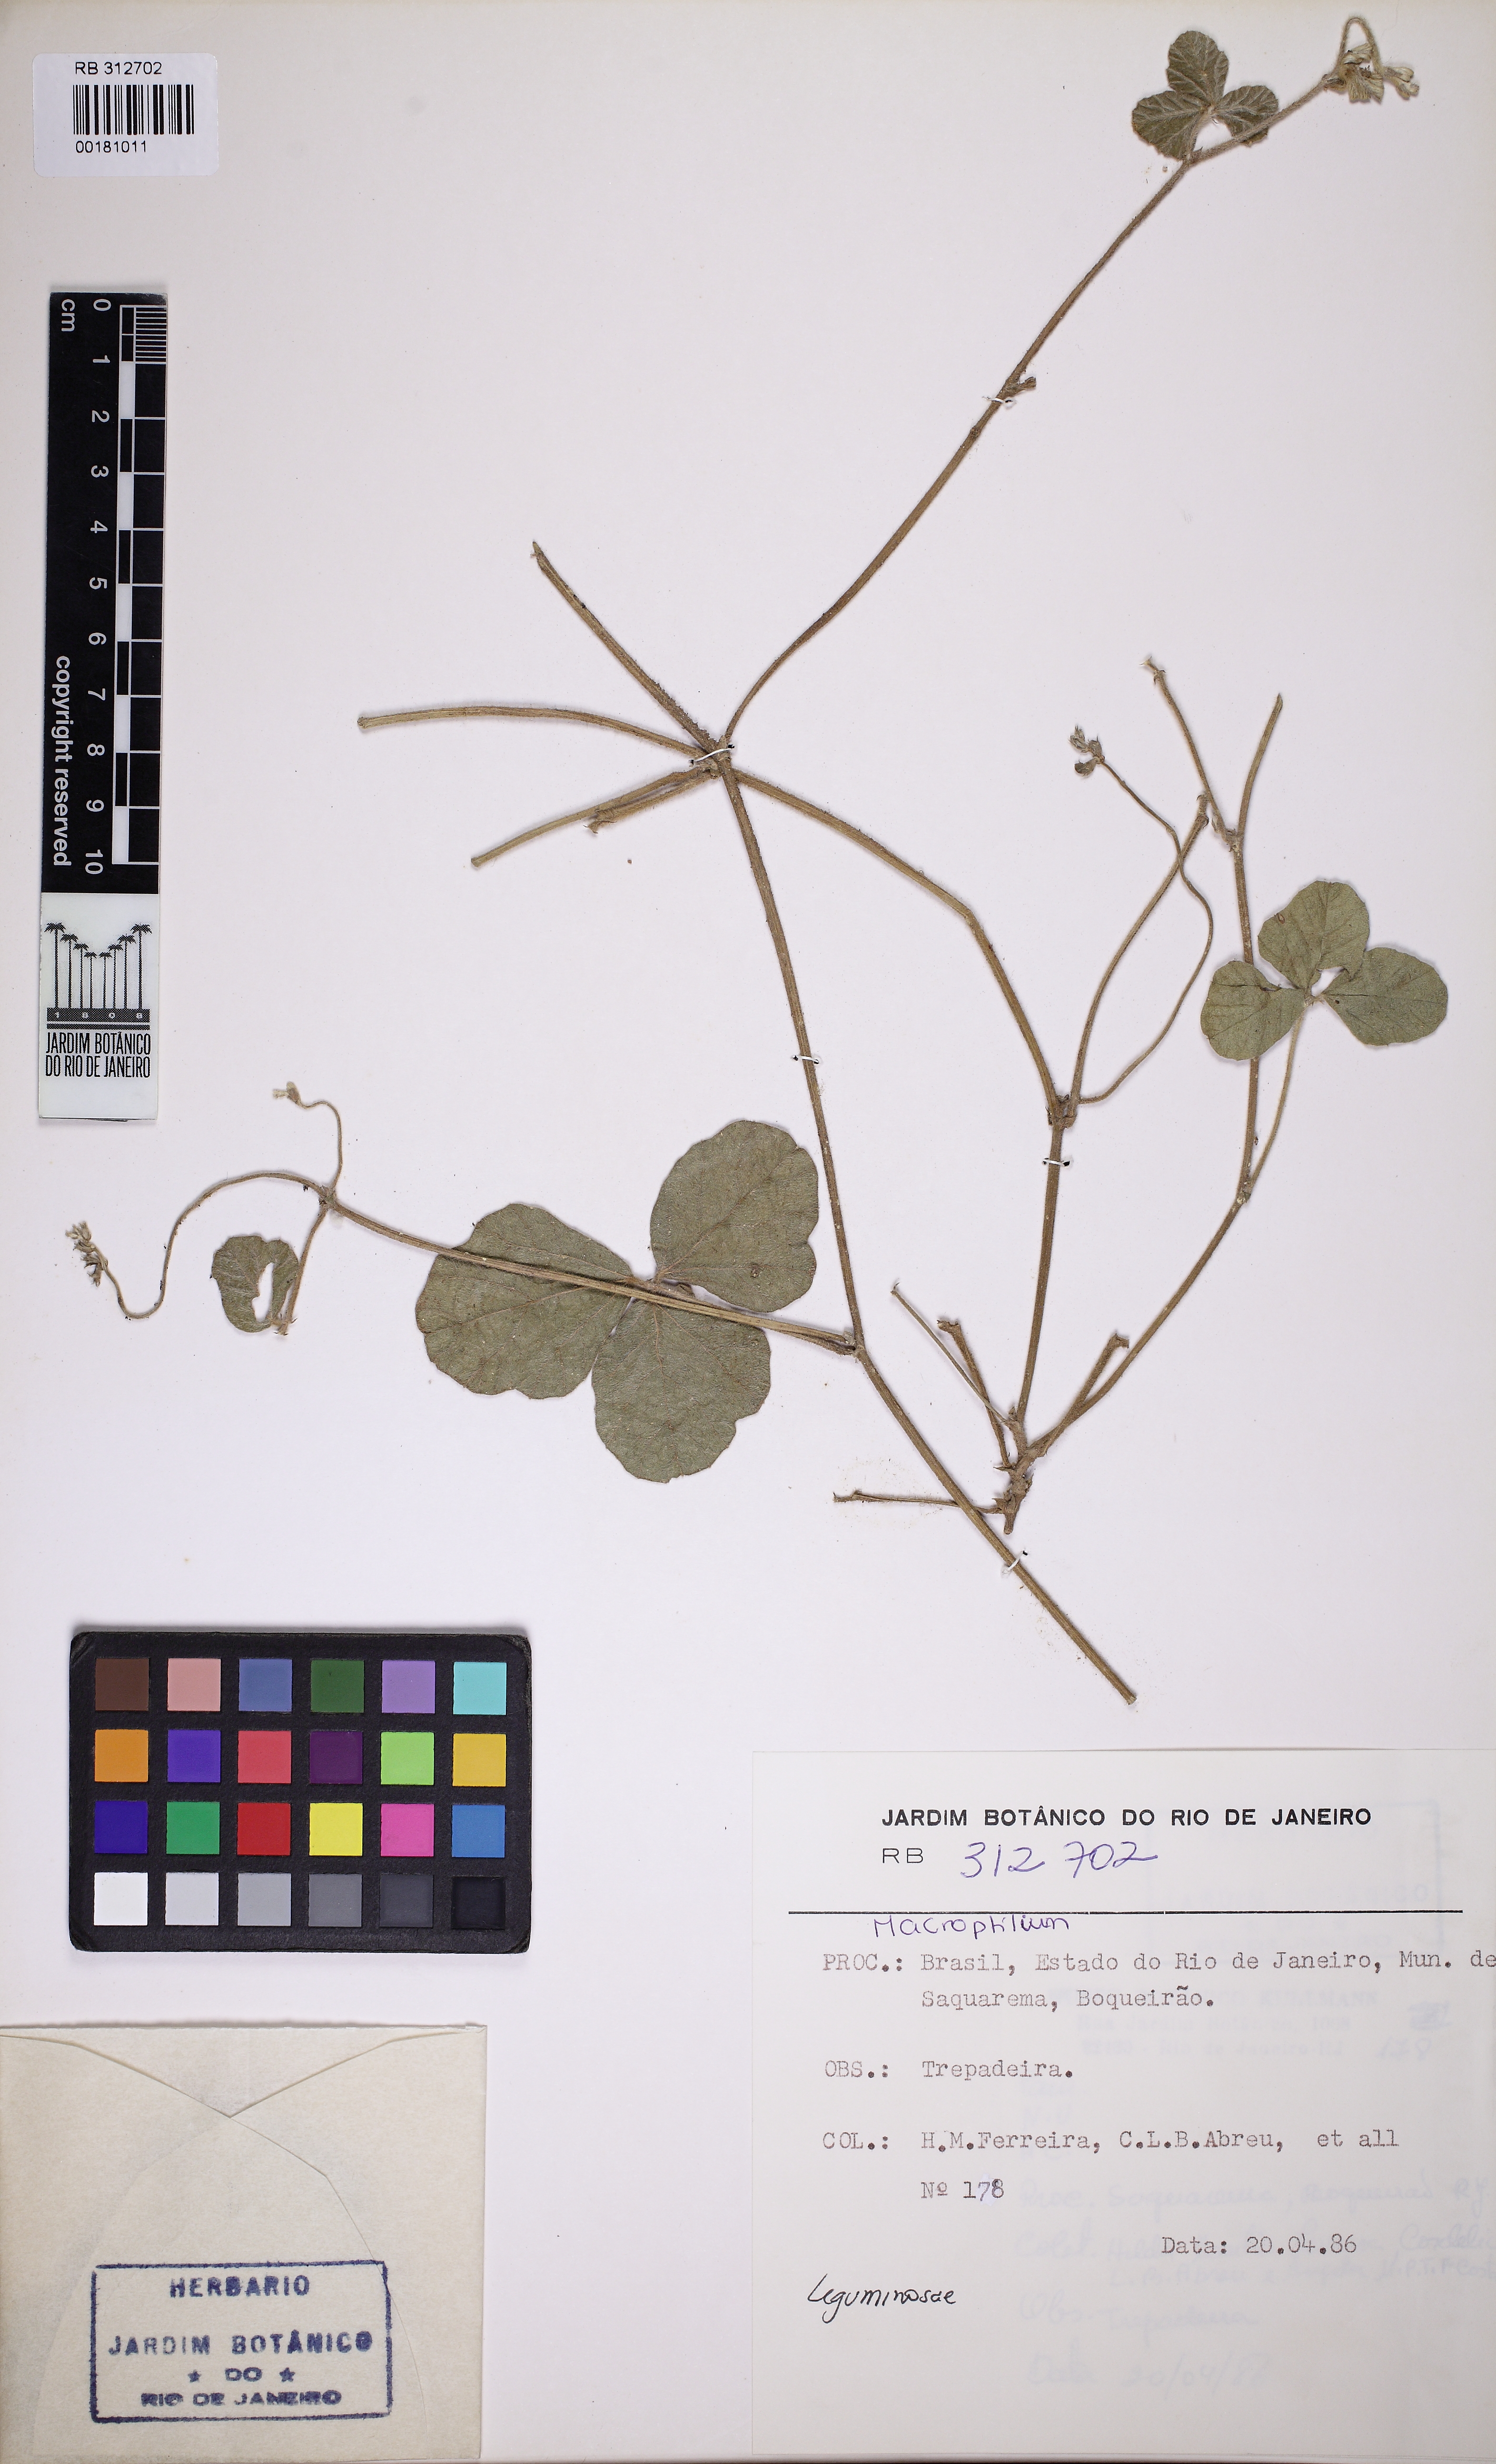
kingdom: Plantae
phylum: Tracheophyta
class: Magnoliopsida
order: Fabales
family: Fabaceae
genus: Macroptilium
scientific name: Macroptilium panduratum
